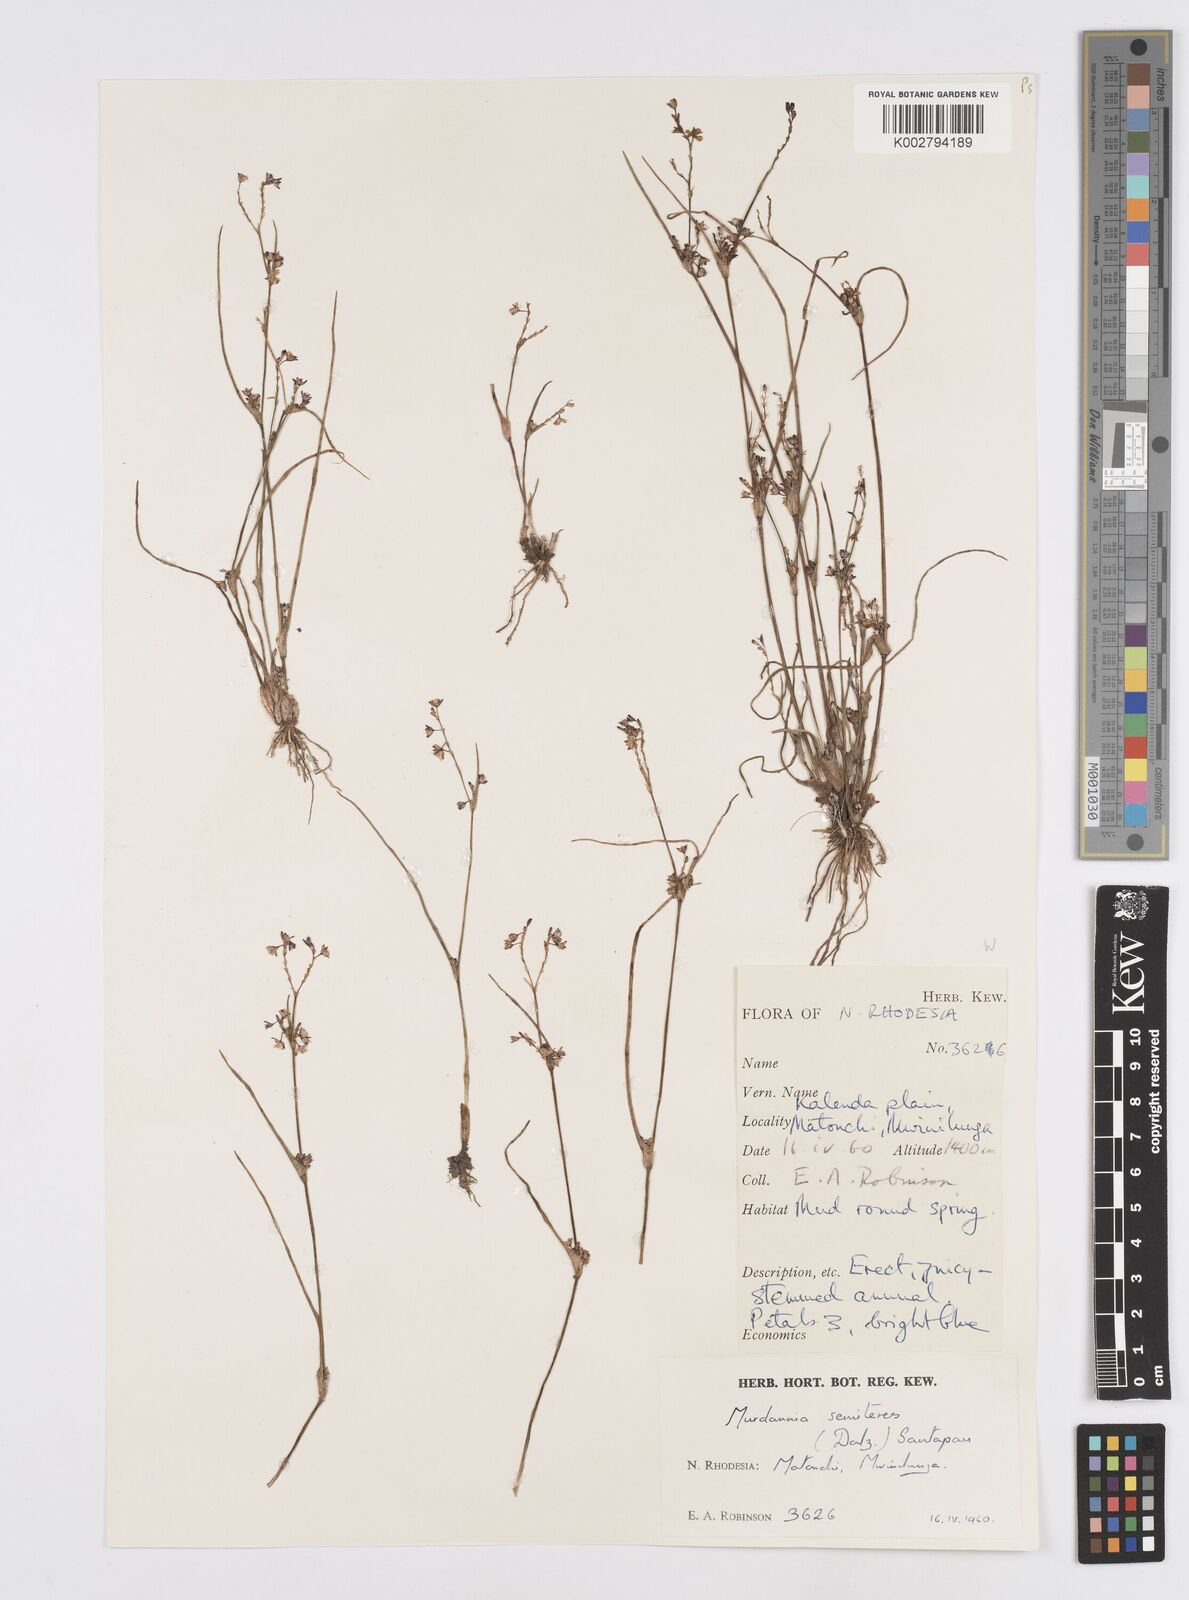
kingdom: Plantae
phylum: Tracheophyta
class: Liliopsida
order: Commelinales
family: Commelinaceae
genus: Murdannia
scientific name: Murdannia semiteres
